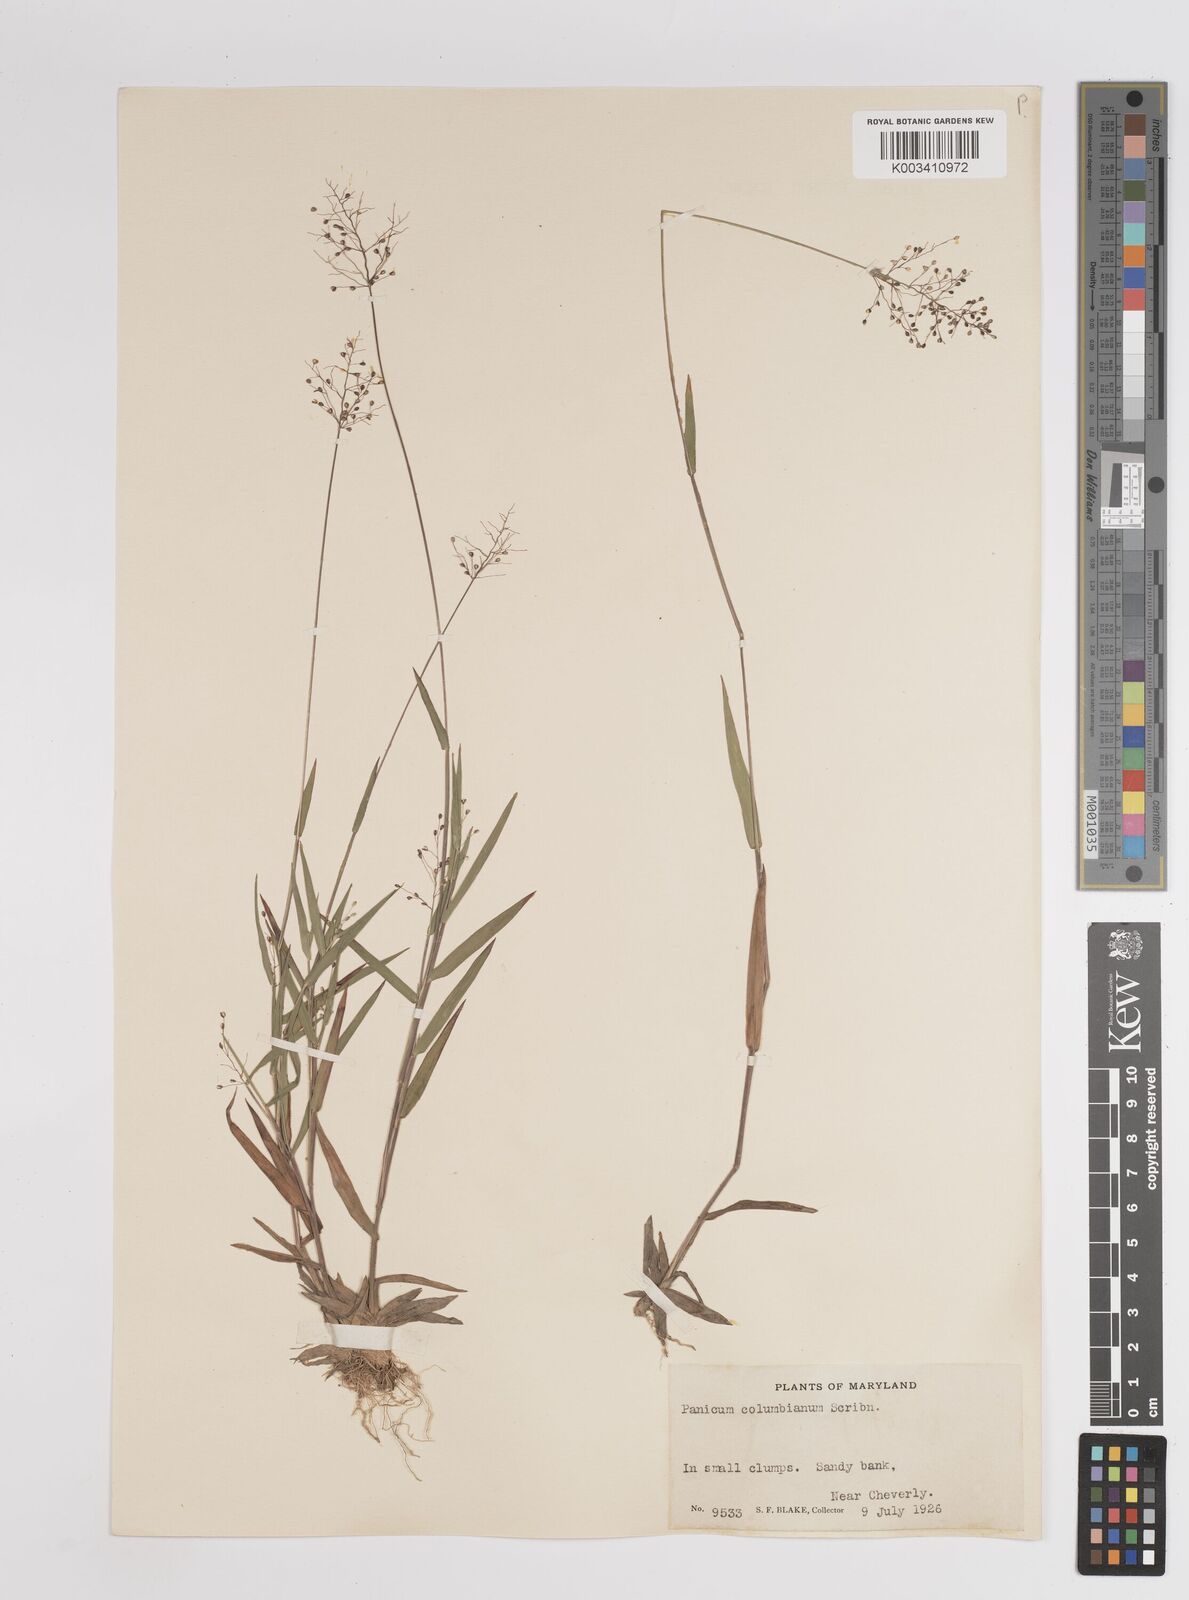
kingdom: Plantae
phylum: Tracheophyta
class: Liliopsida
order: Poales
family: Poaceae
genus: Dichanthelium
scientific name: Dichanthelium columbianum
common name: Hemlock panic grass
